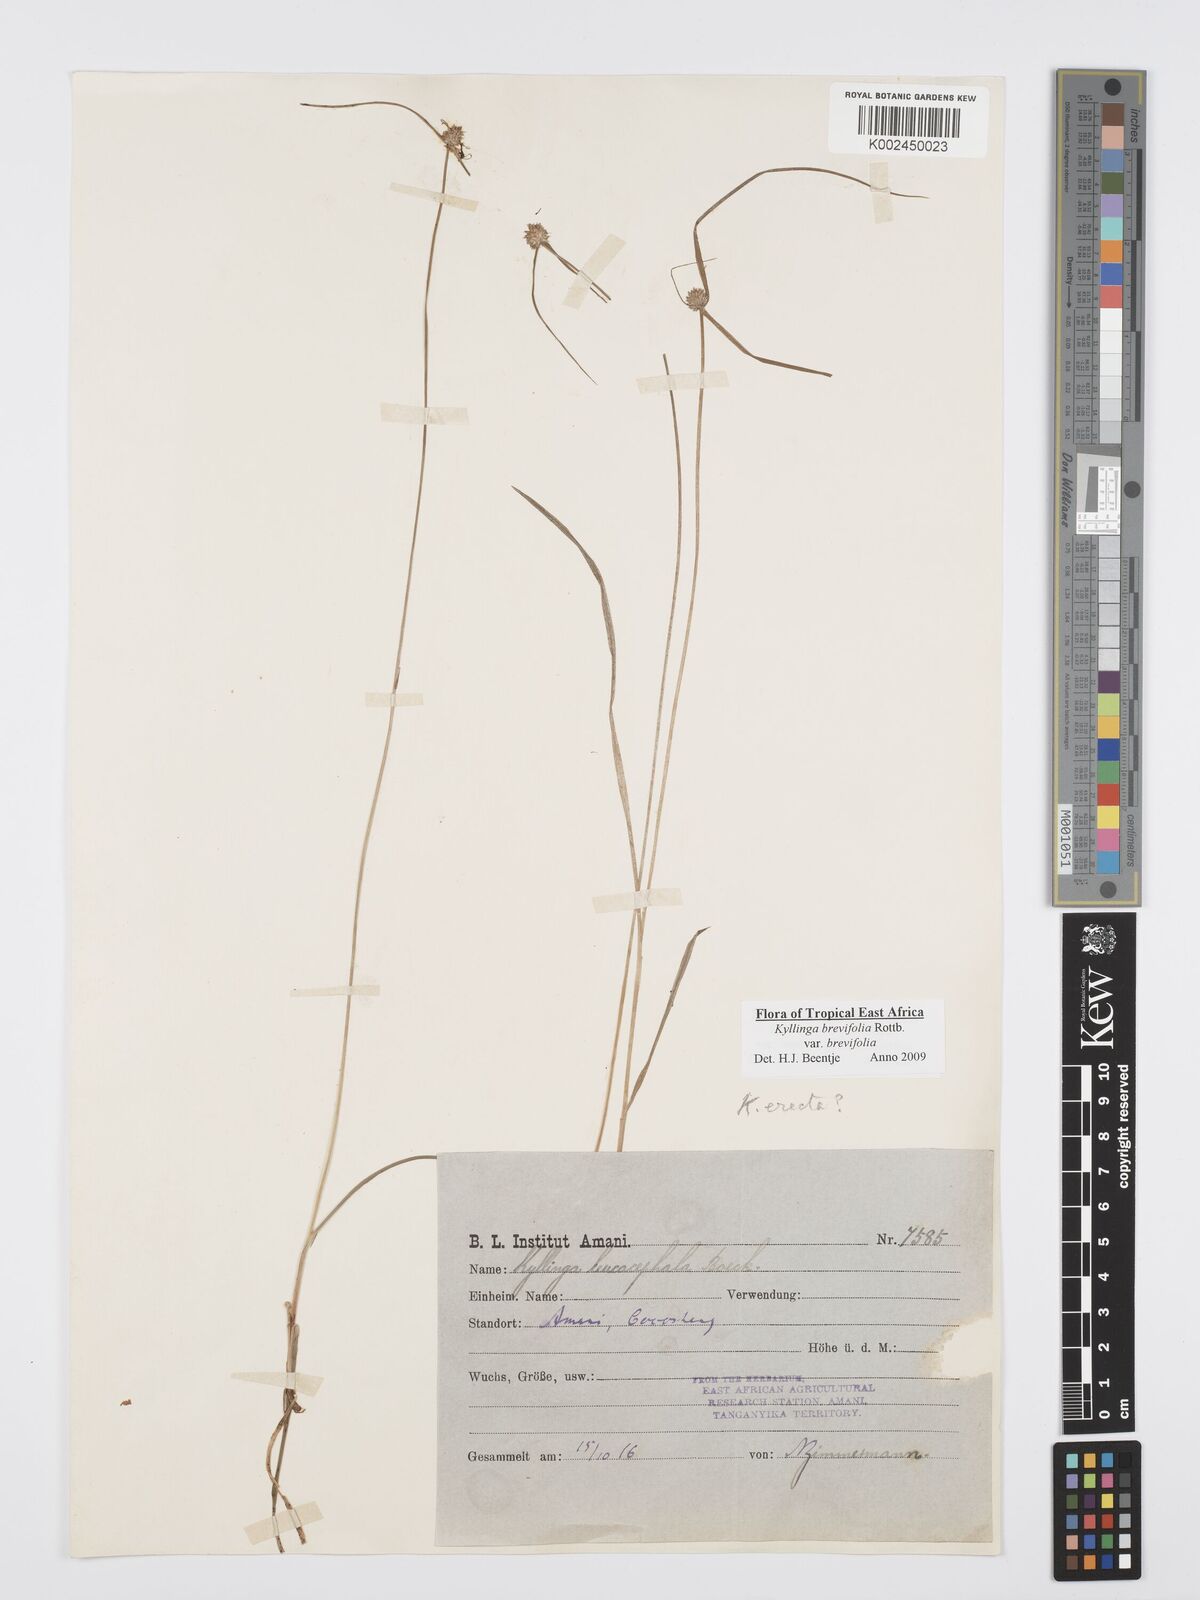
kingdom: Plantae
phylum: Tracheophyta
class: Liliopsida
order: Poales
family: Cyperaceae
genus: Cyperus
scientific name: Cyperus brevifolius
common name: Globe kyllinga
